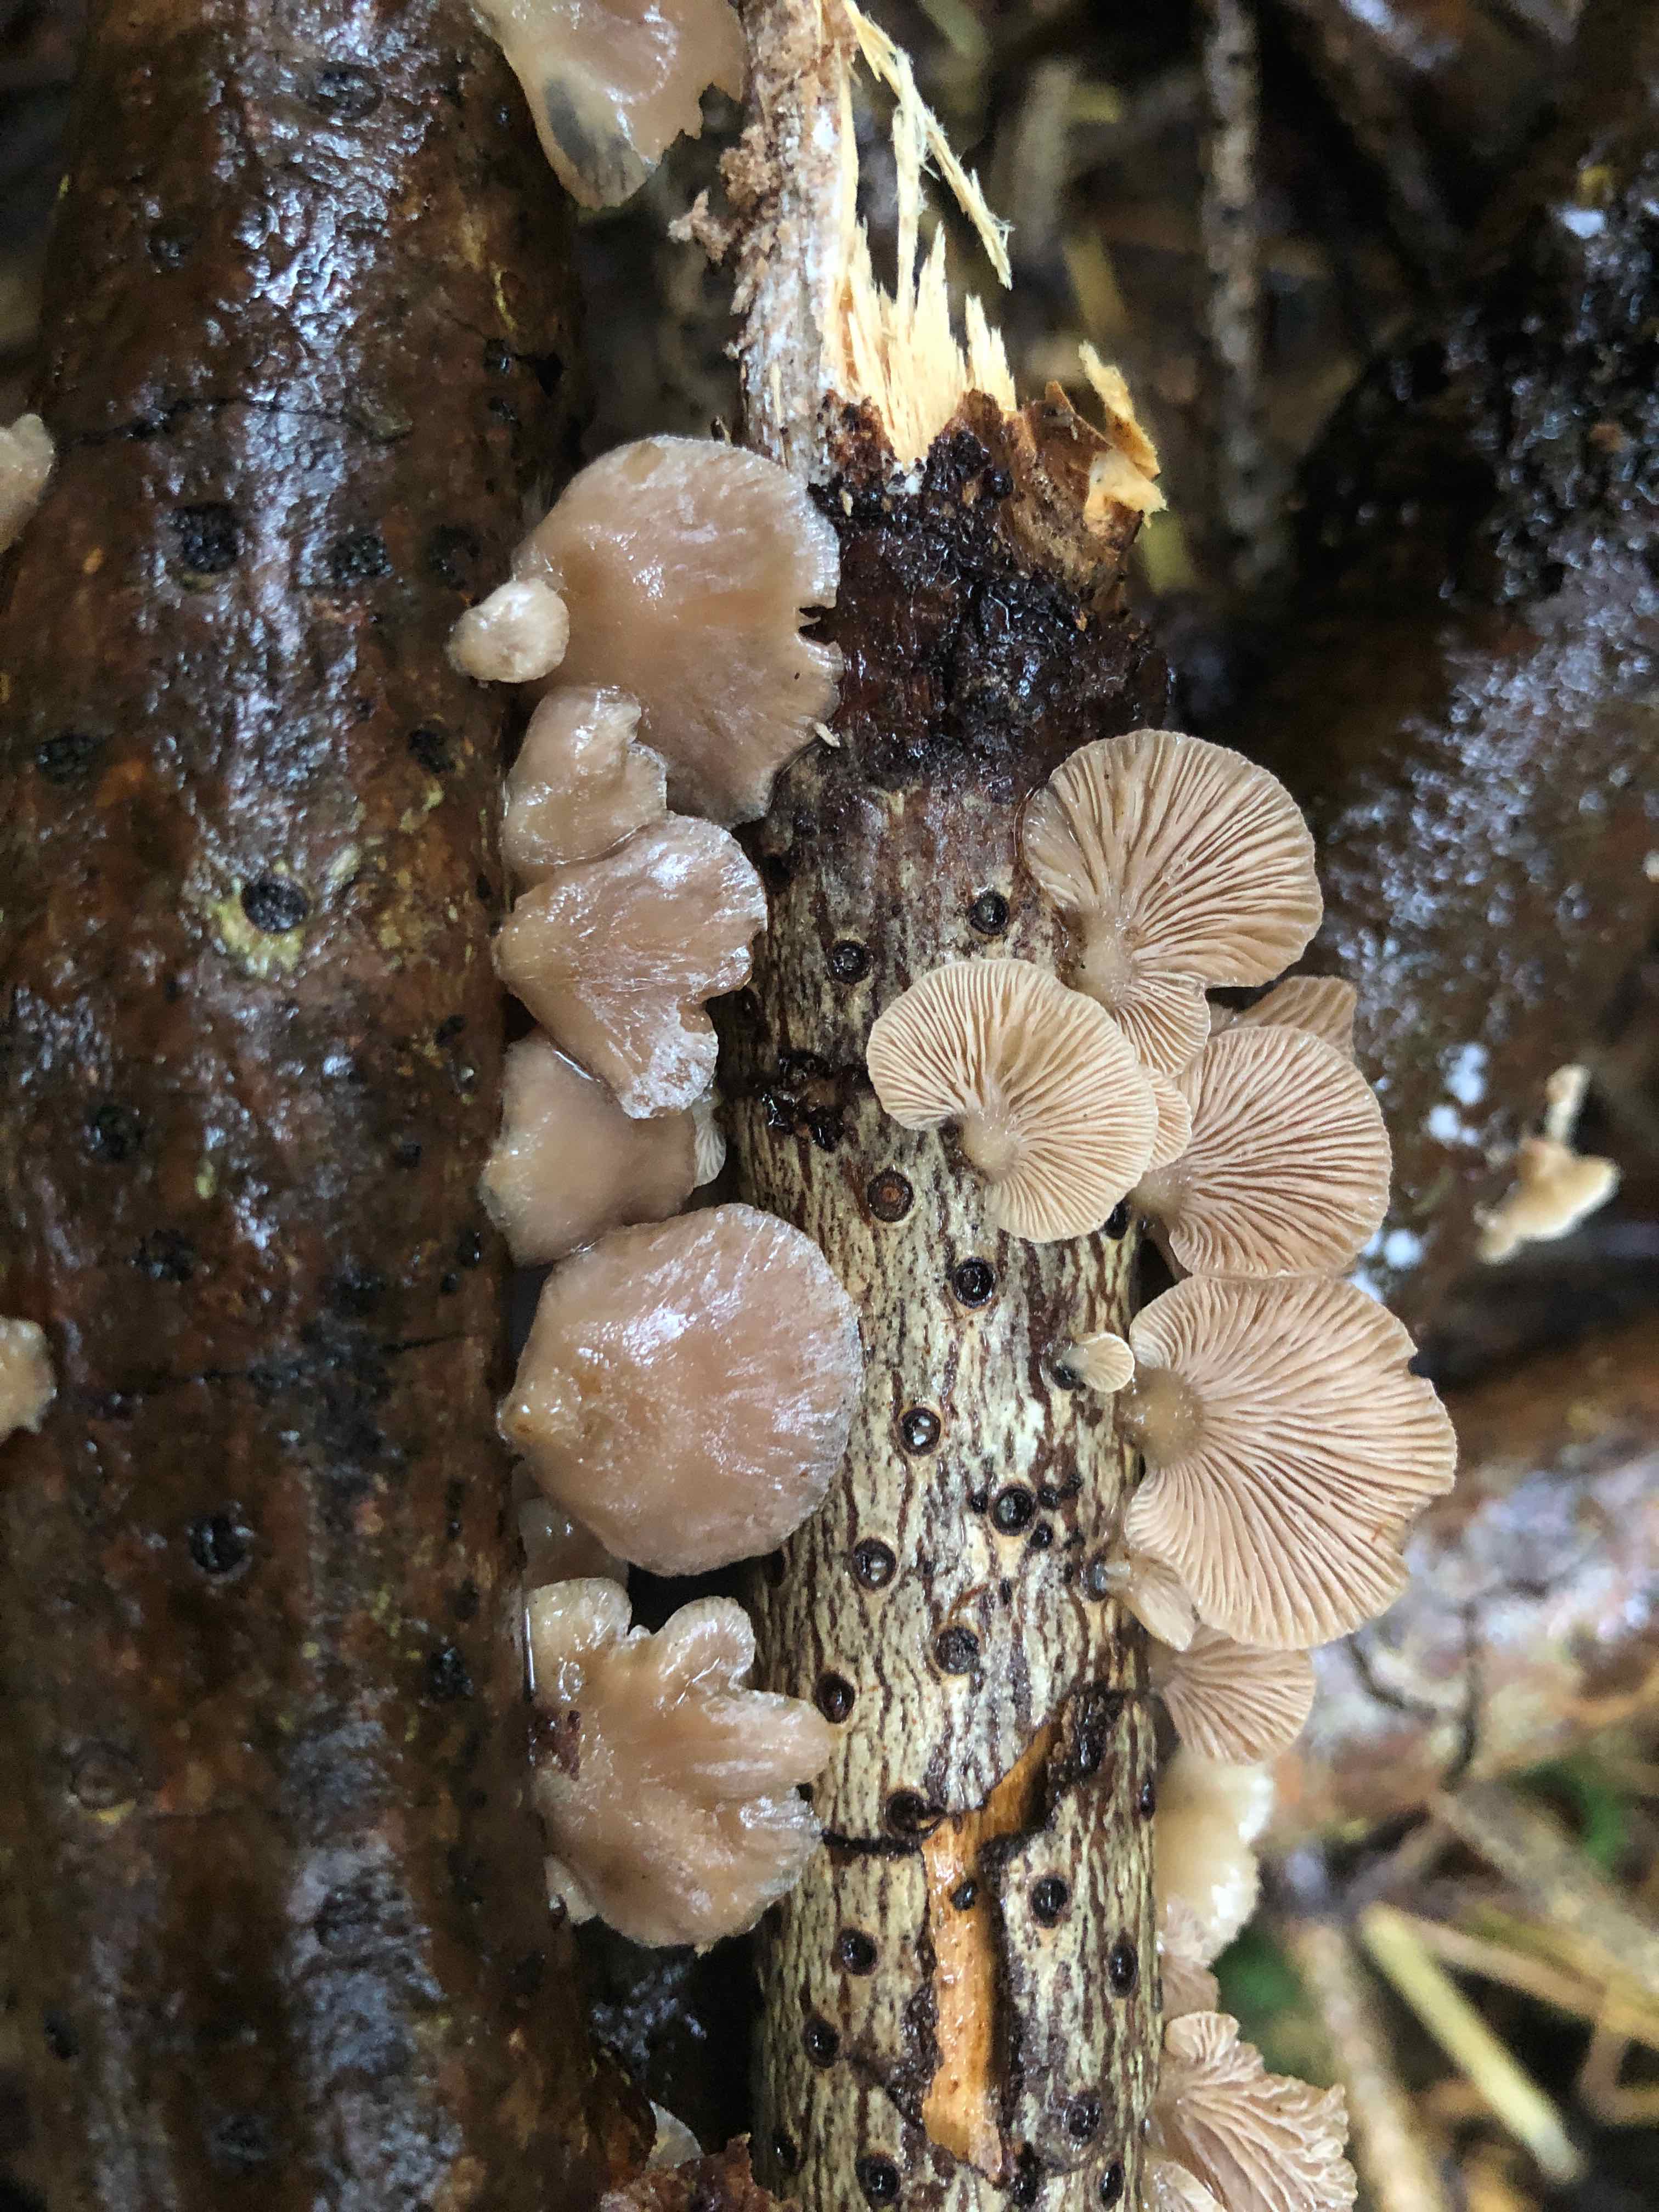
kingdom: Fungi
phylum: Basidiomycota
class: Agaricomycetes
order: Agaricales
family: Mycenaceae
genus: Panellus
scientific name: Panellus mitis
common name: mild epaulethat
